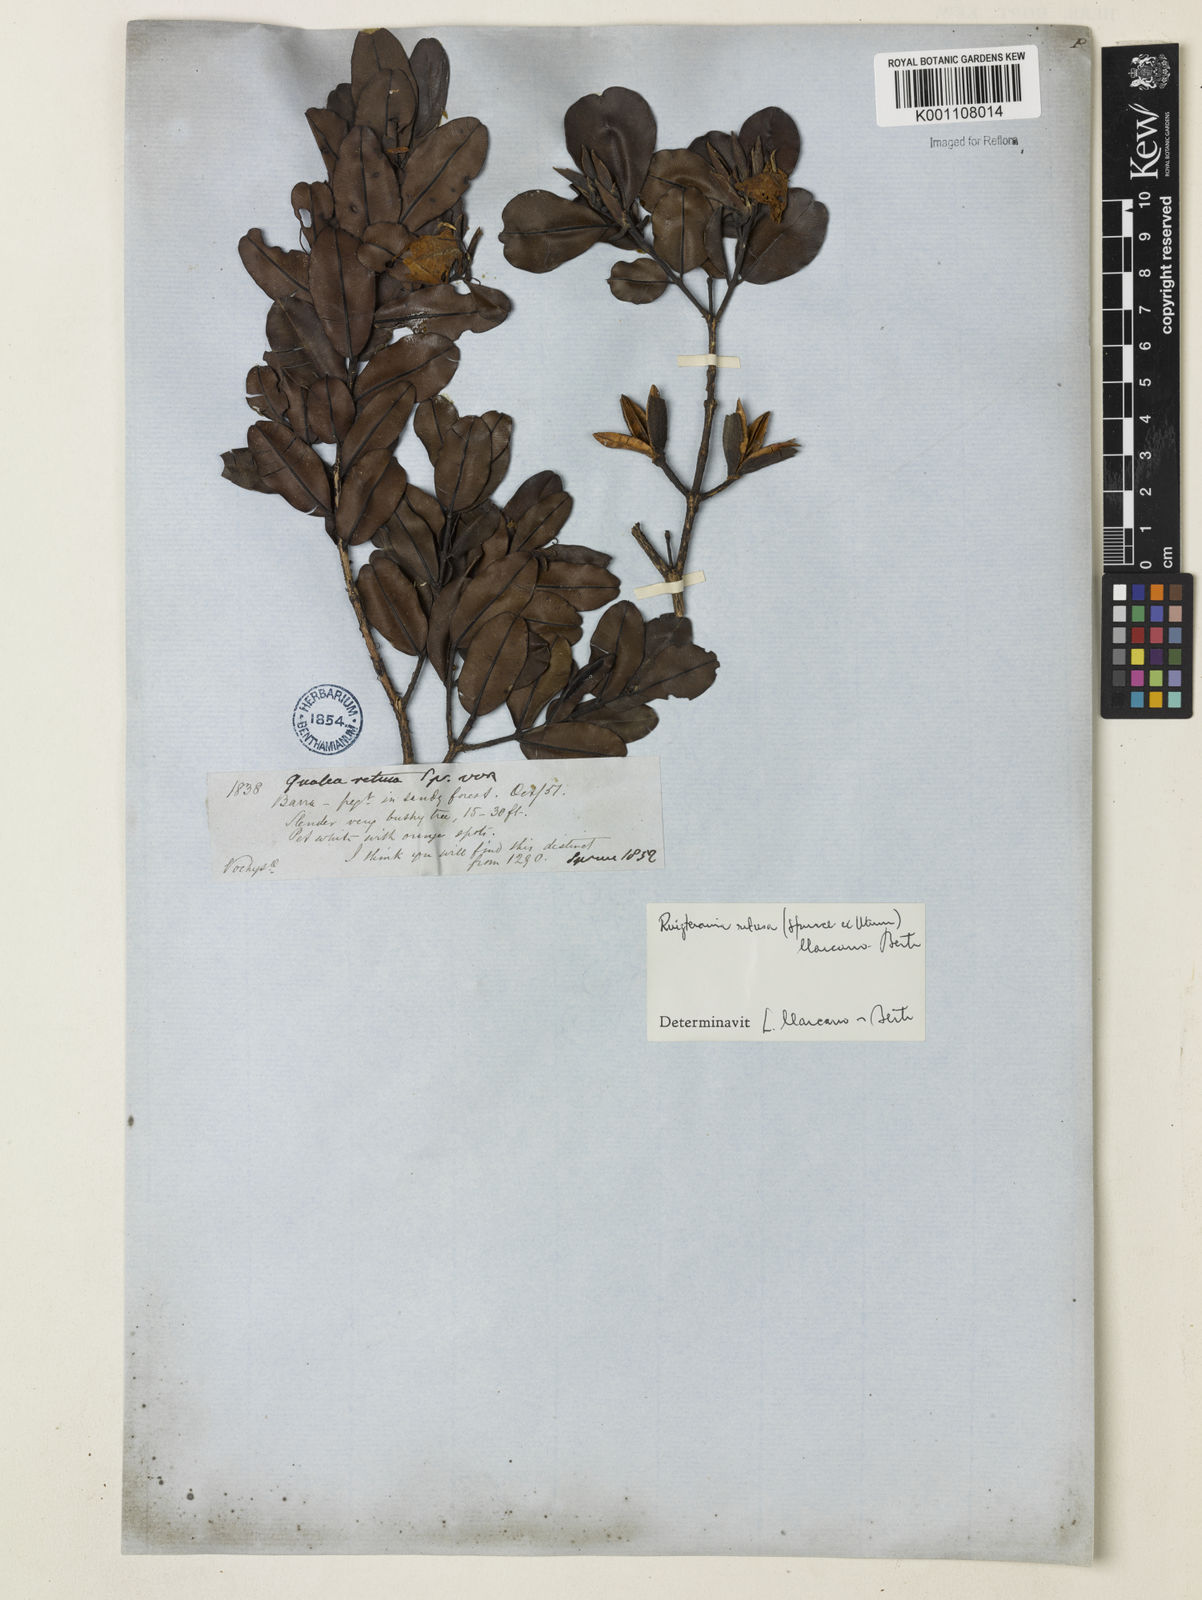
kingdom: Plantae
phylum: Tracheophyta
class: Magnoliopsida
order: Myrtales
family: Vochysiaceae
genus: Ruizterania
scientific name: Ruizterania retusa
